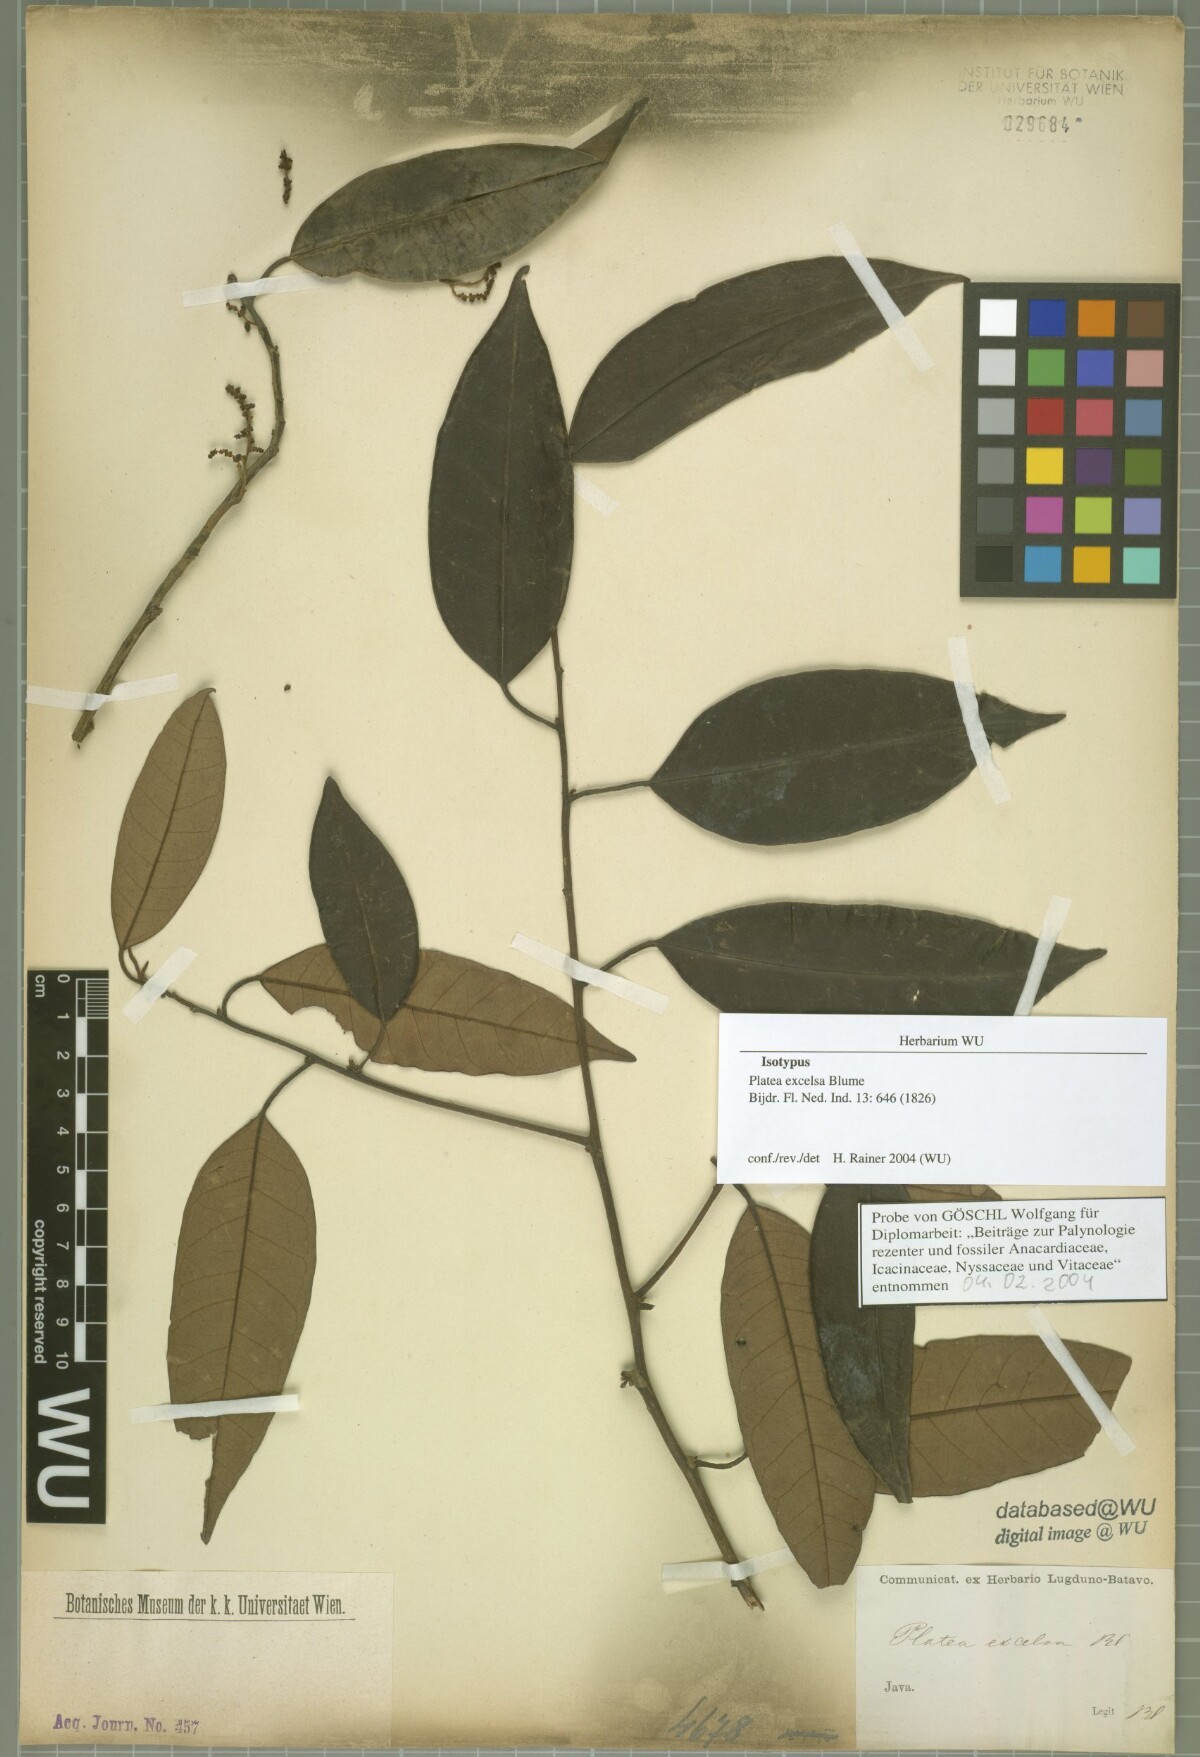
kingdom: Plantae
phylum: Tracheophyta
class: Magnoliopsida
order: Metteniusales
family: Metteniusaceae
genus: Platea
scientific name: Platea excelsa
